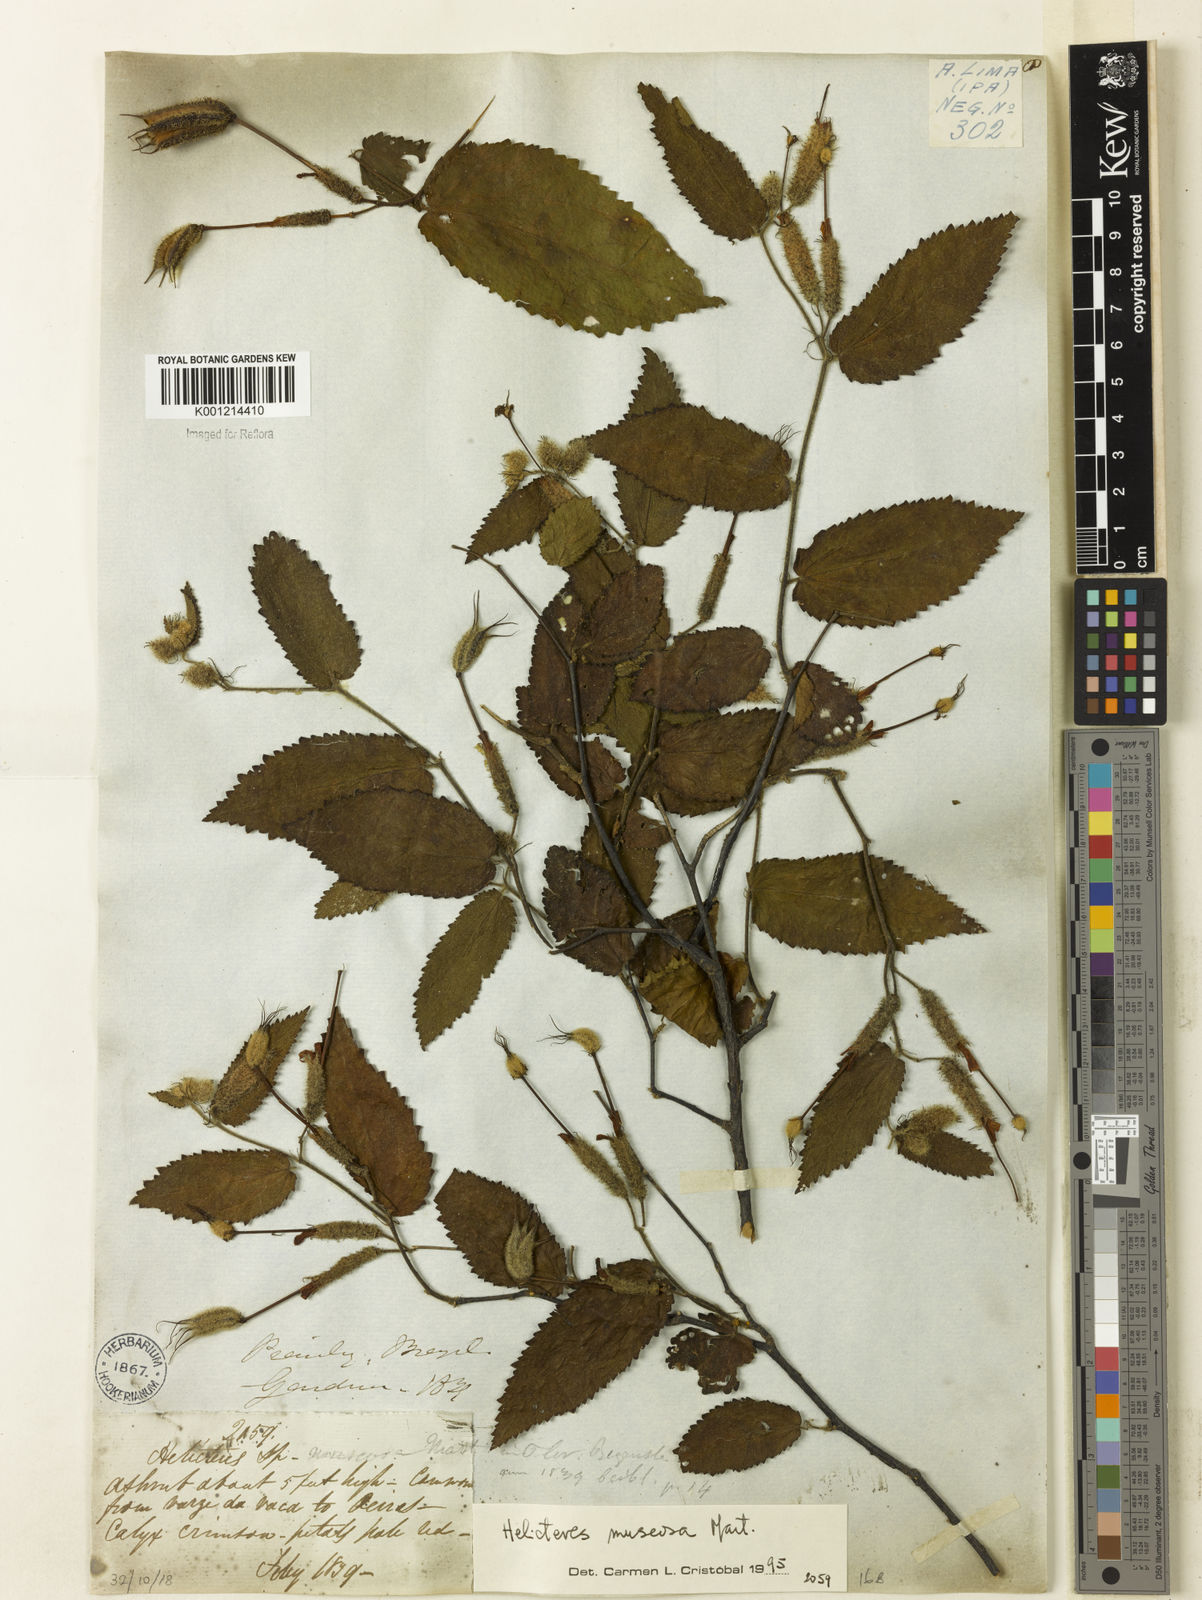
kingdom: Plantae
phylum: Tracheophyta
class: Magnoliopsida
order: Malvales
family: Malvaceae
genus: Helicteres
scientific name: Helicteres muscosa
